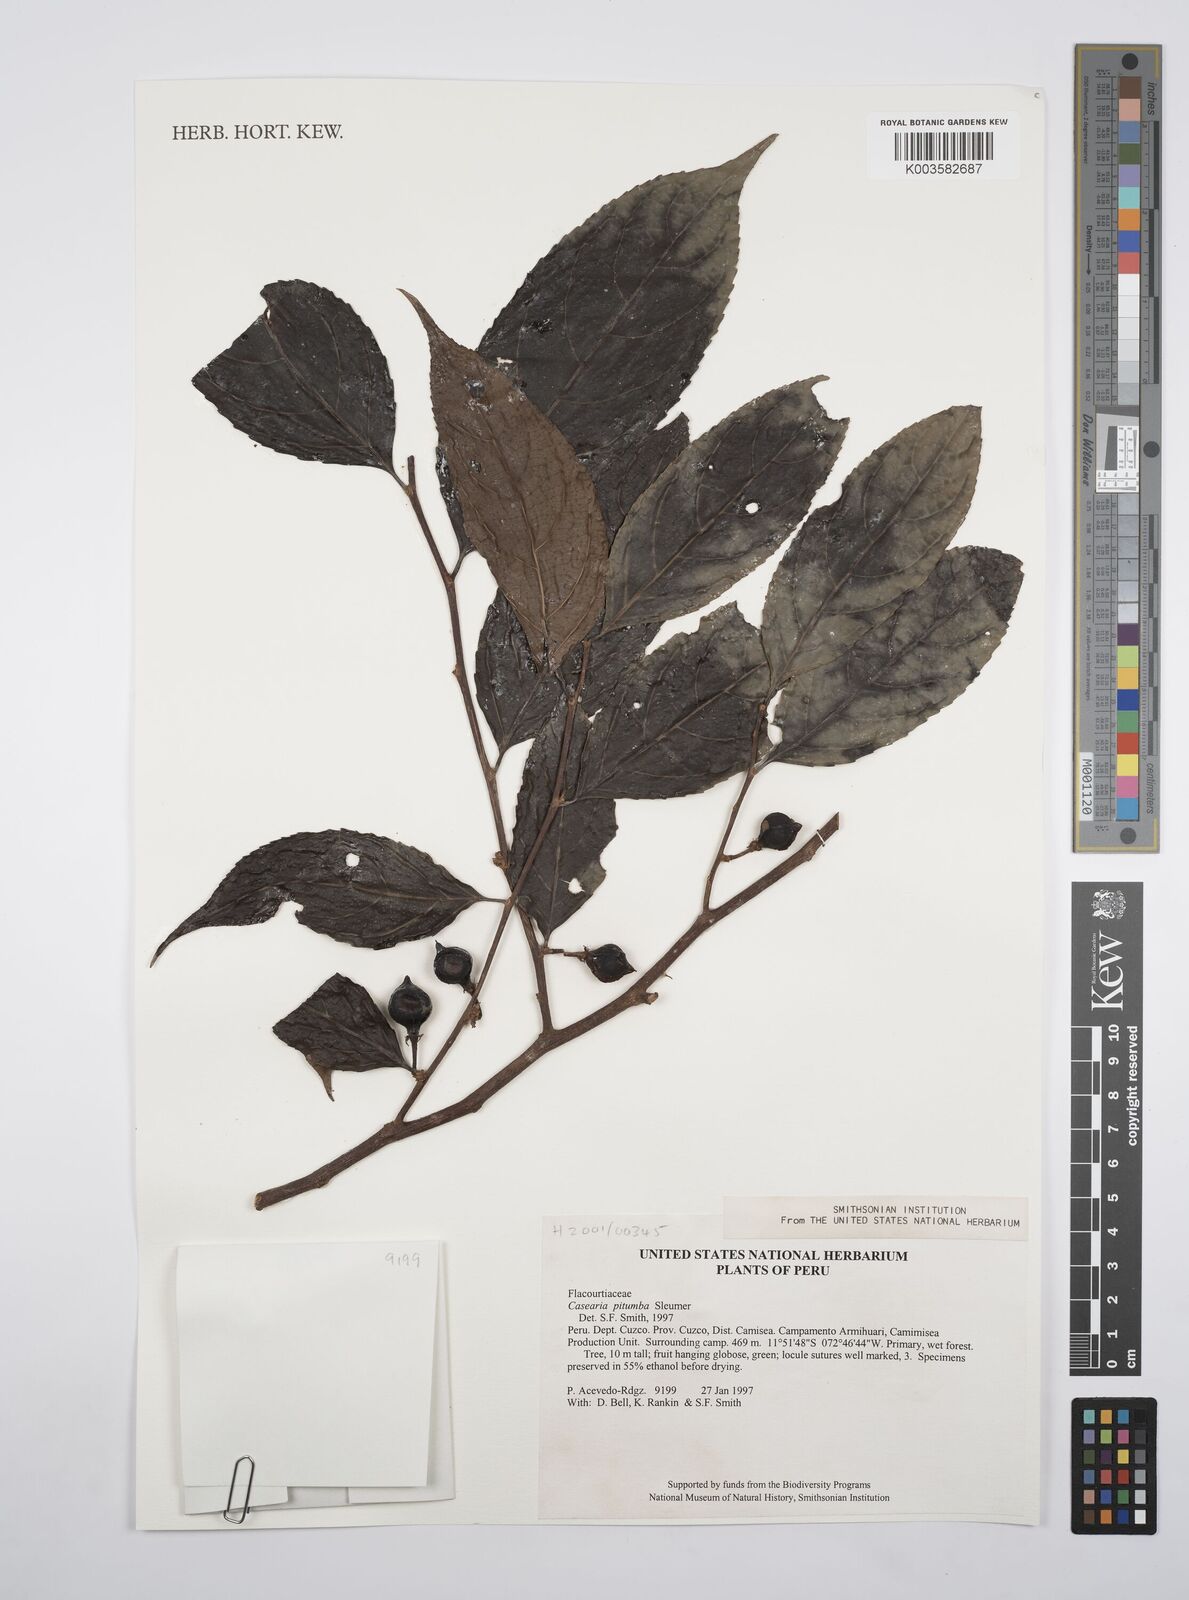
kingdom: Plantae
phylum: Tracheophyta
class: Magnoliopsida
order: Malpighiales
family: Salicaceae
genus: Casearia
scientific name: Casearia pitumba
